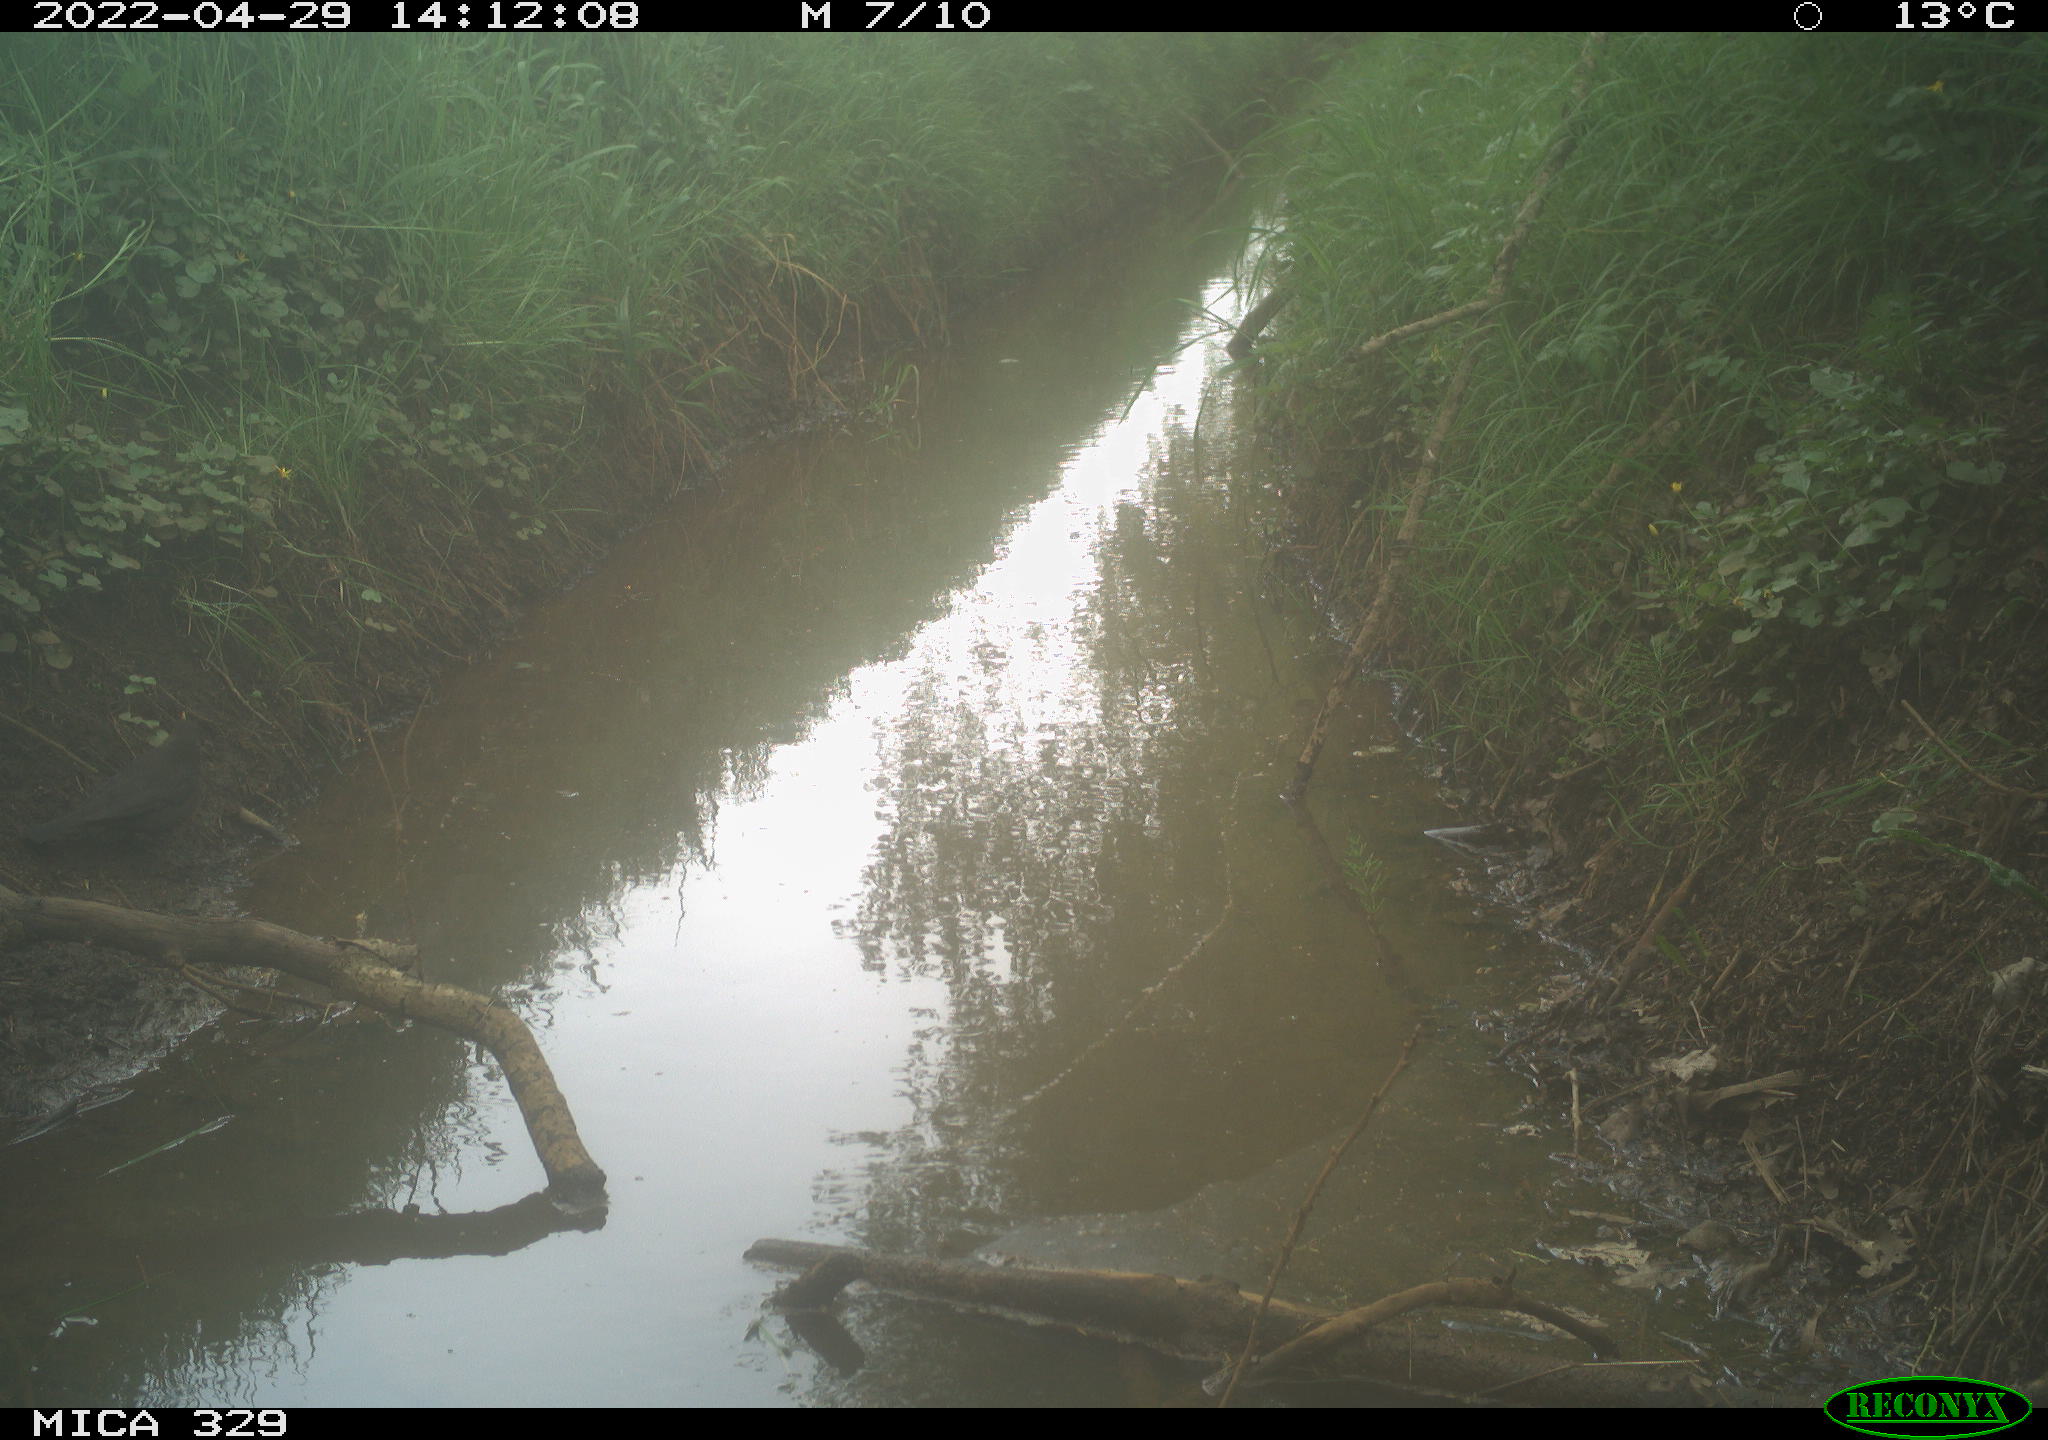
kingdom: Animalia
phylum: Chordata
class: Aves
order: Passeriformes
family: Turdidae
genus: Turdus
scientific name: Turdus merula
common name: Common blackbird
